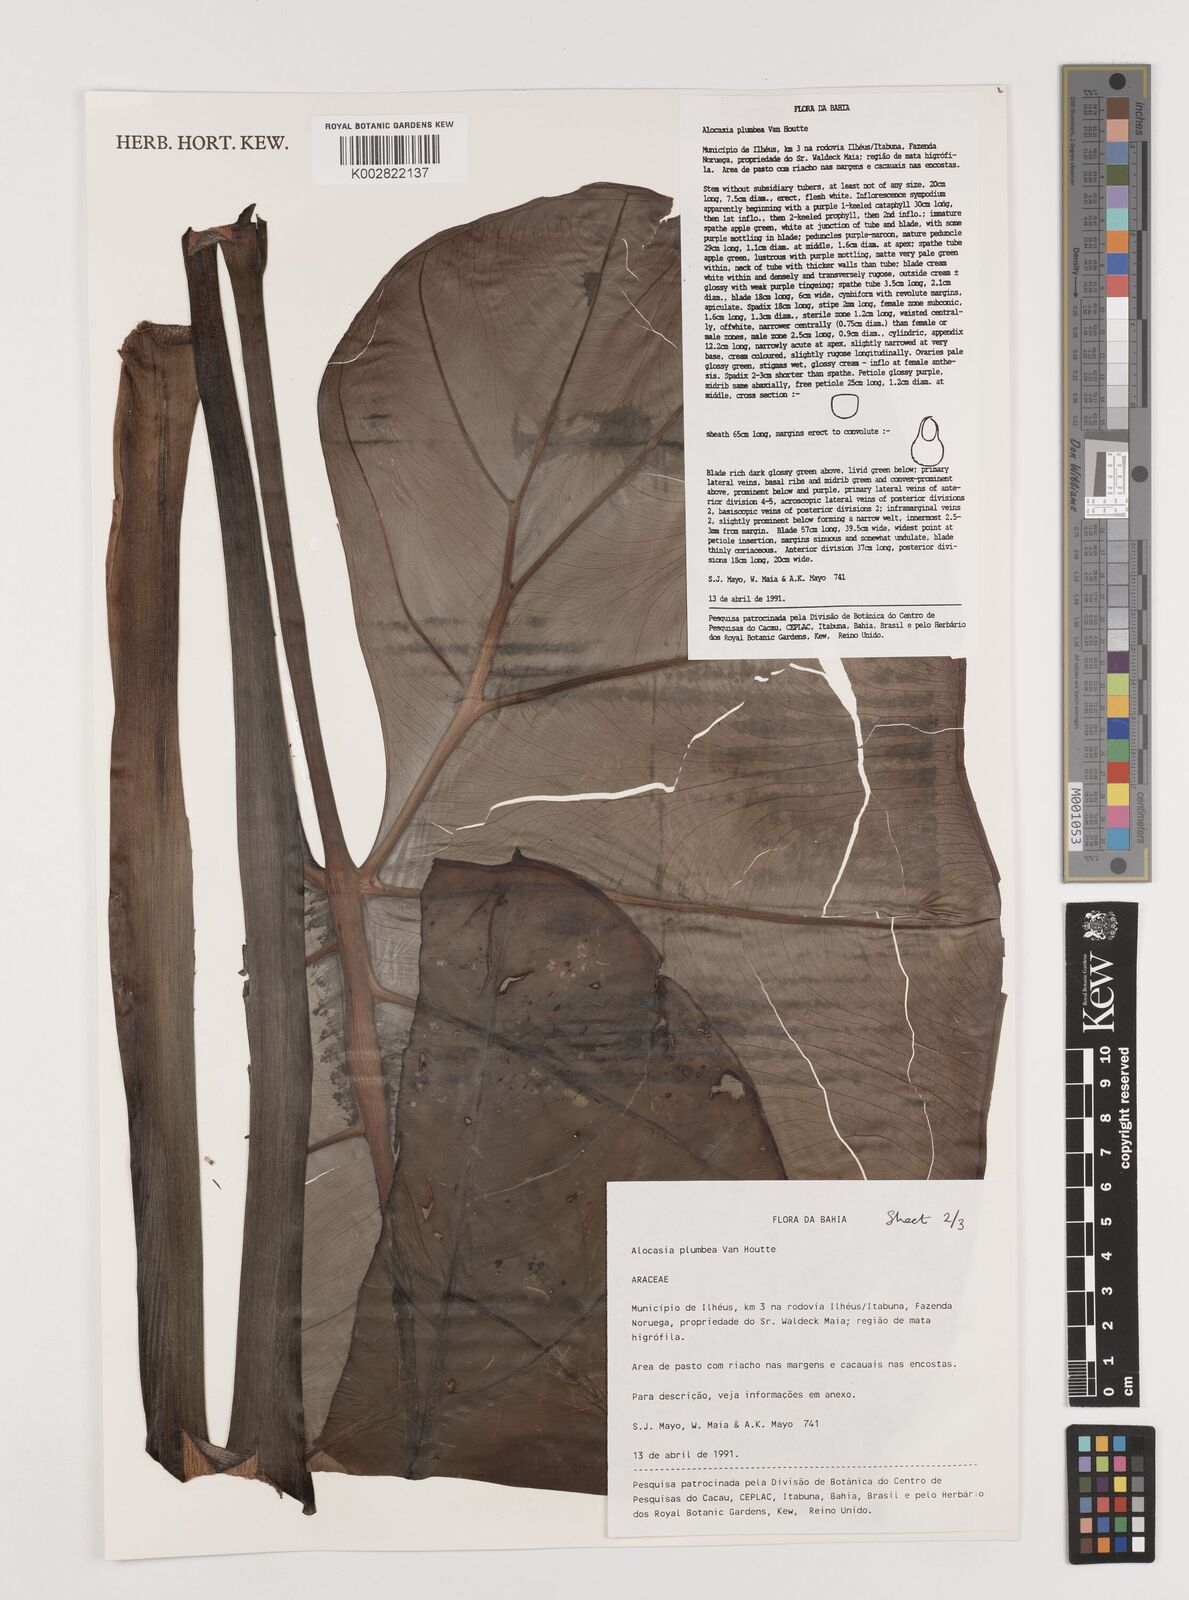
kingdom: Plantae
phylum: Tracheophyta
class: Liliopsida
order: Alismatales
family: Araceae
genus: Alocasia
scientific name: Alocasia macrorrhizos
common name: Giant taro
